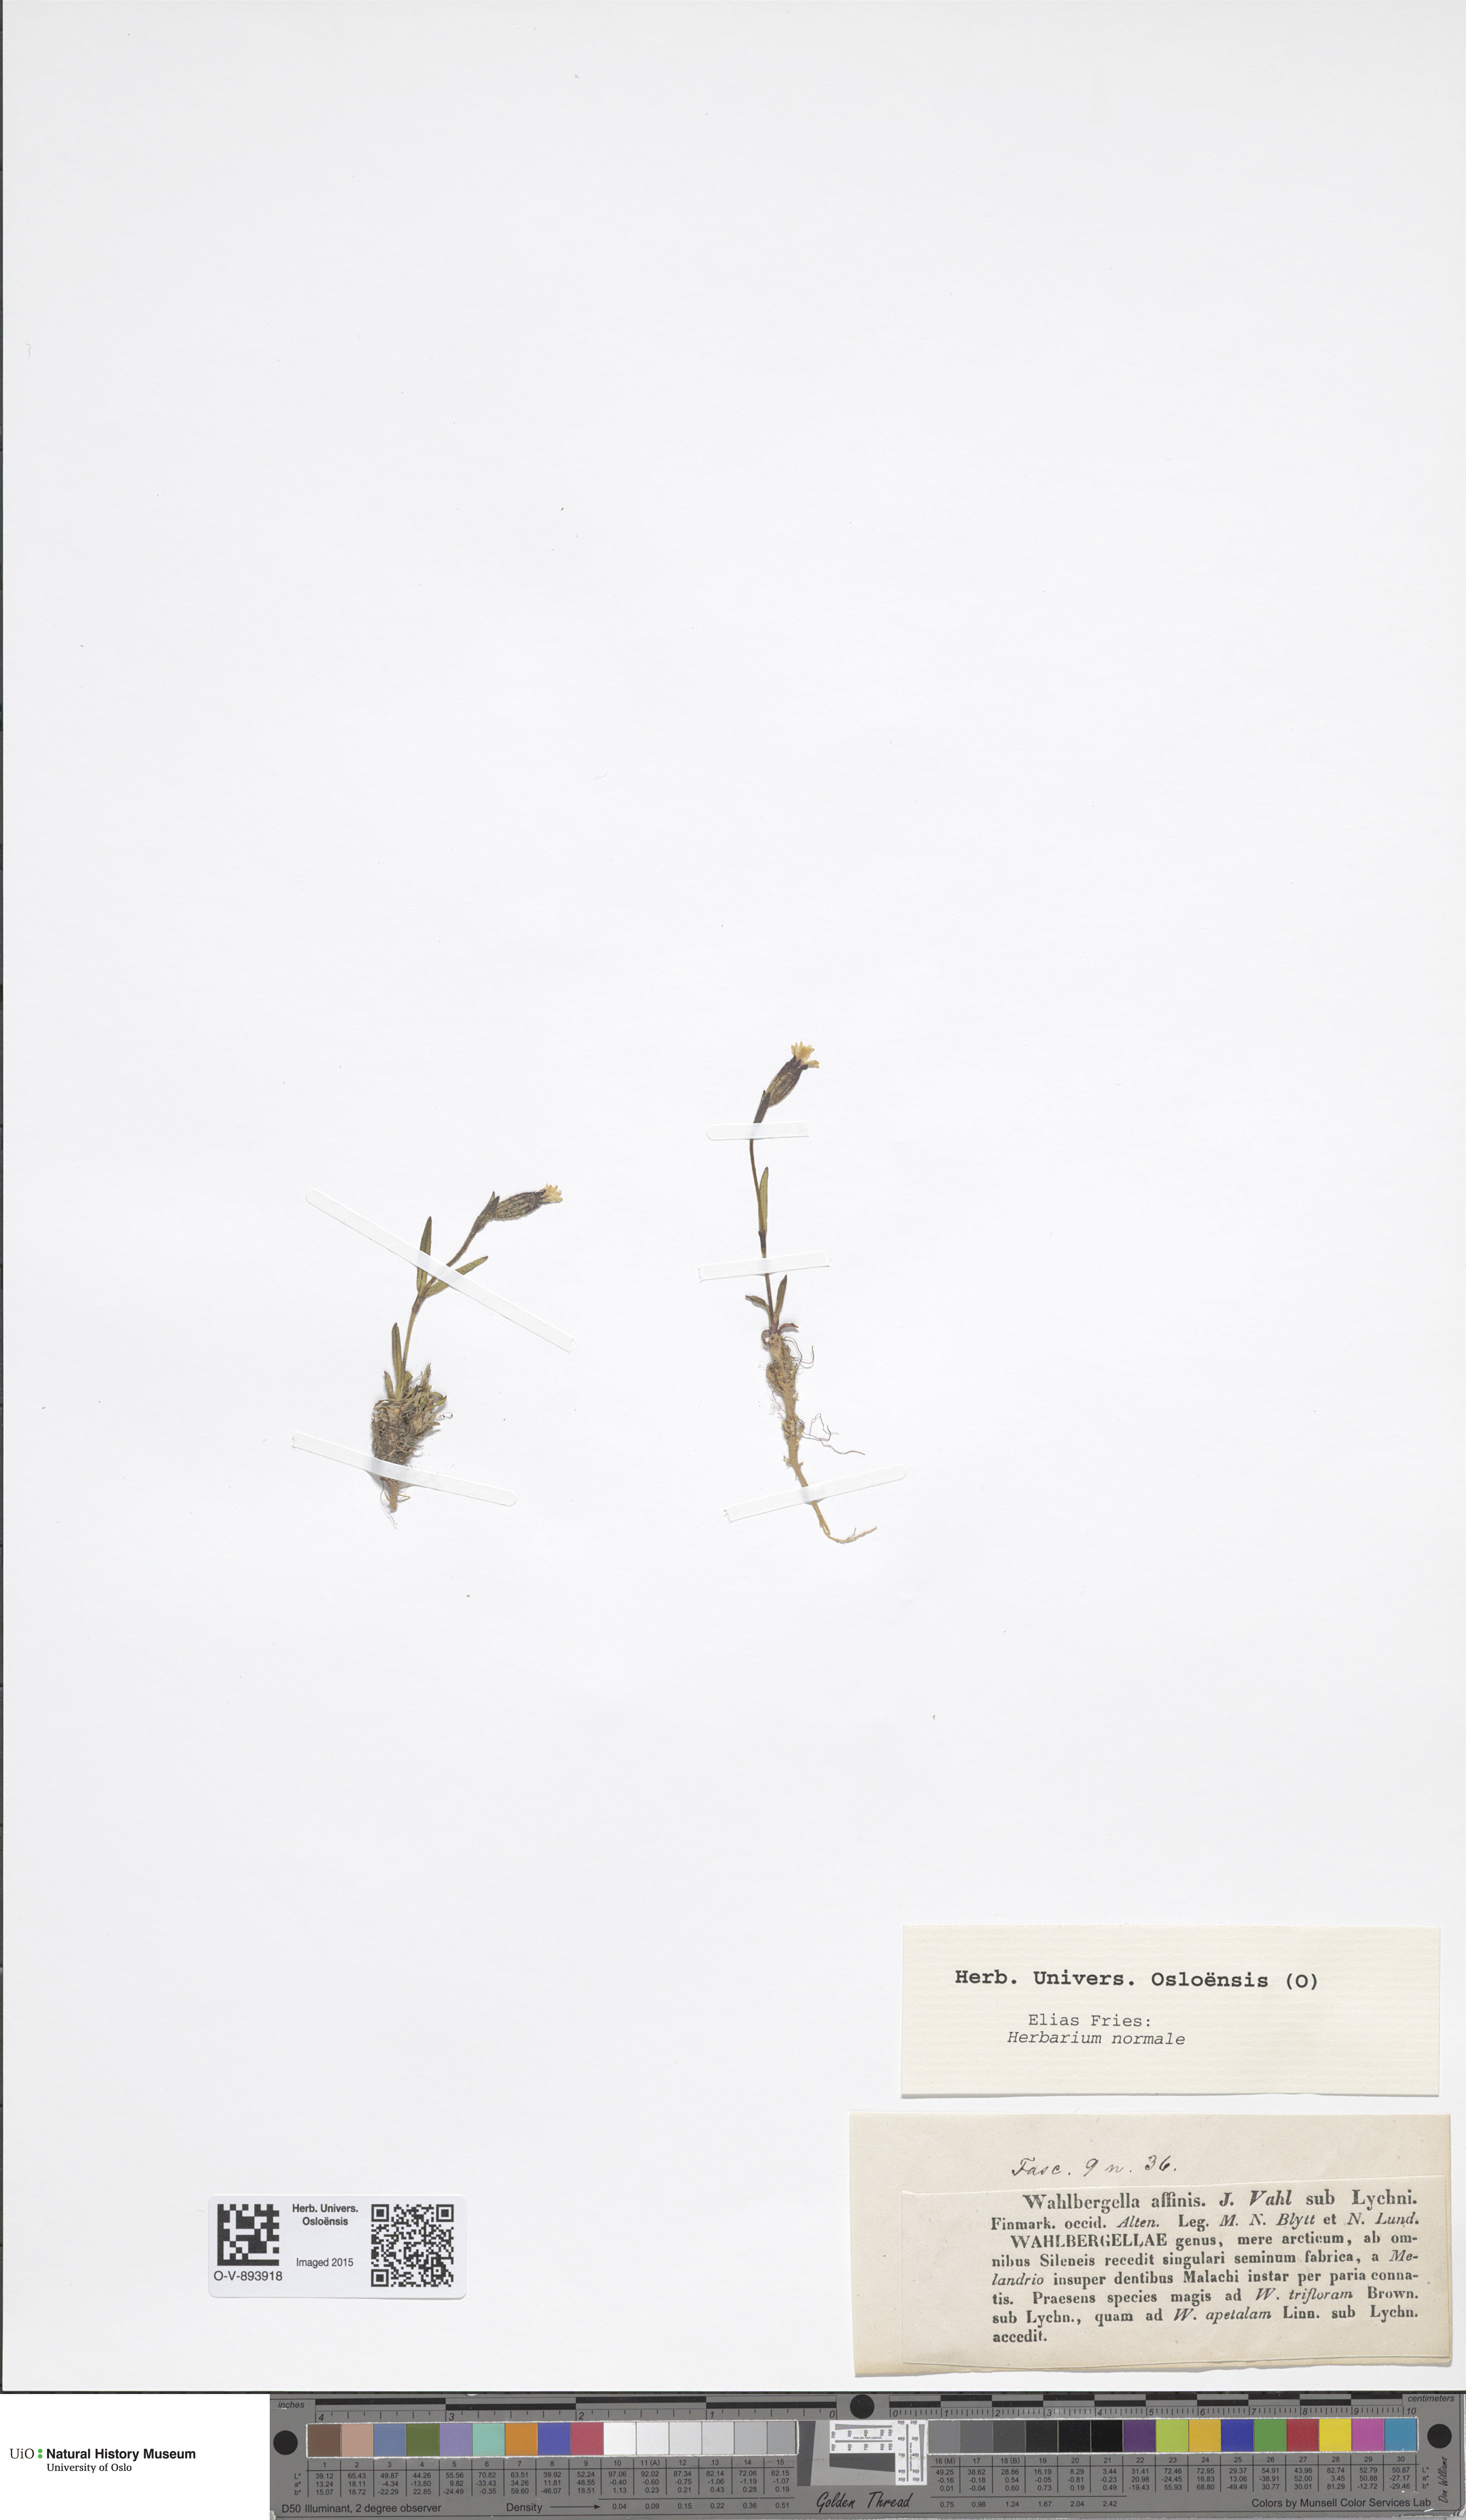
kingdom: Plantae
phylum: Tracheophyta
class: Magnoliopsida
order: Caryophyllales
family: Caryophyllaceae
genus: Silene
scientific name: Silene involucrata
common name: Greater arctic campion
